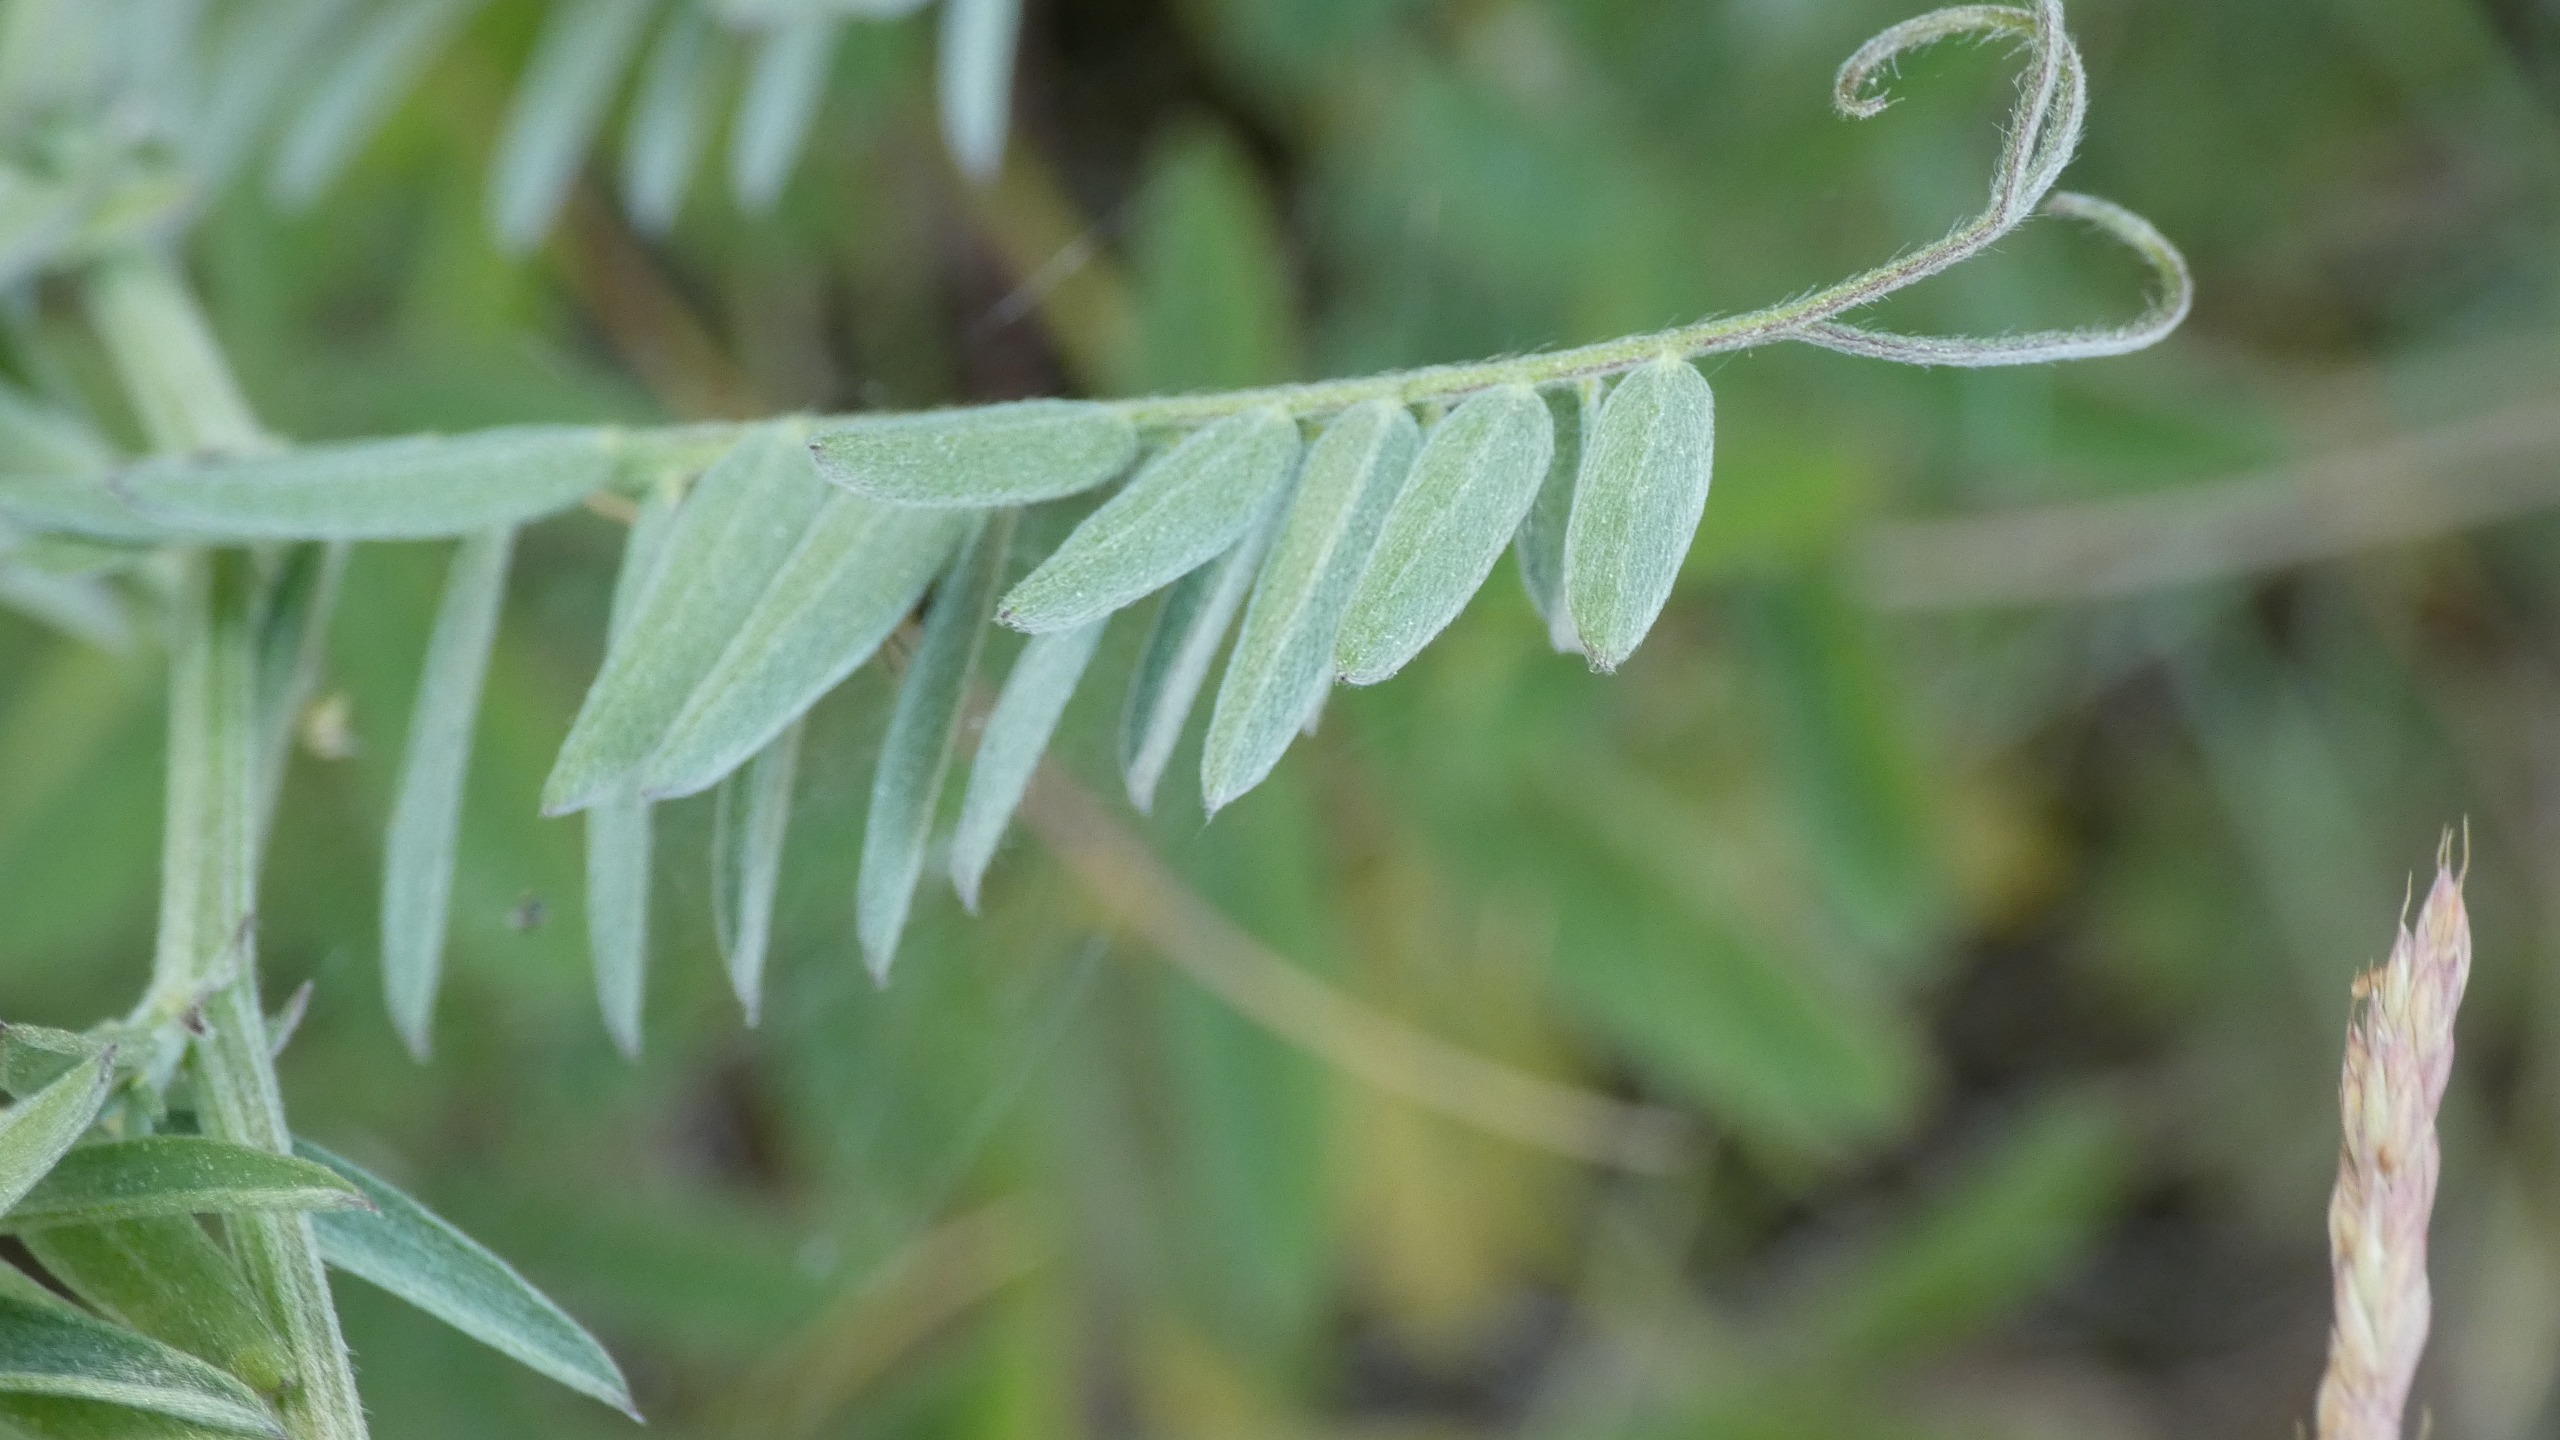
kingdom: Plantae
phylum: Tracheophyta
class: Magnoliopsida
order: Fabales
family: Fabaceae
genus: Vicia
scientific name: Vicia cracca
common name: Muse-vikke
